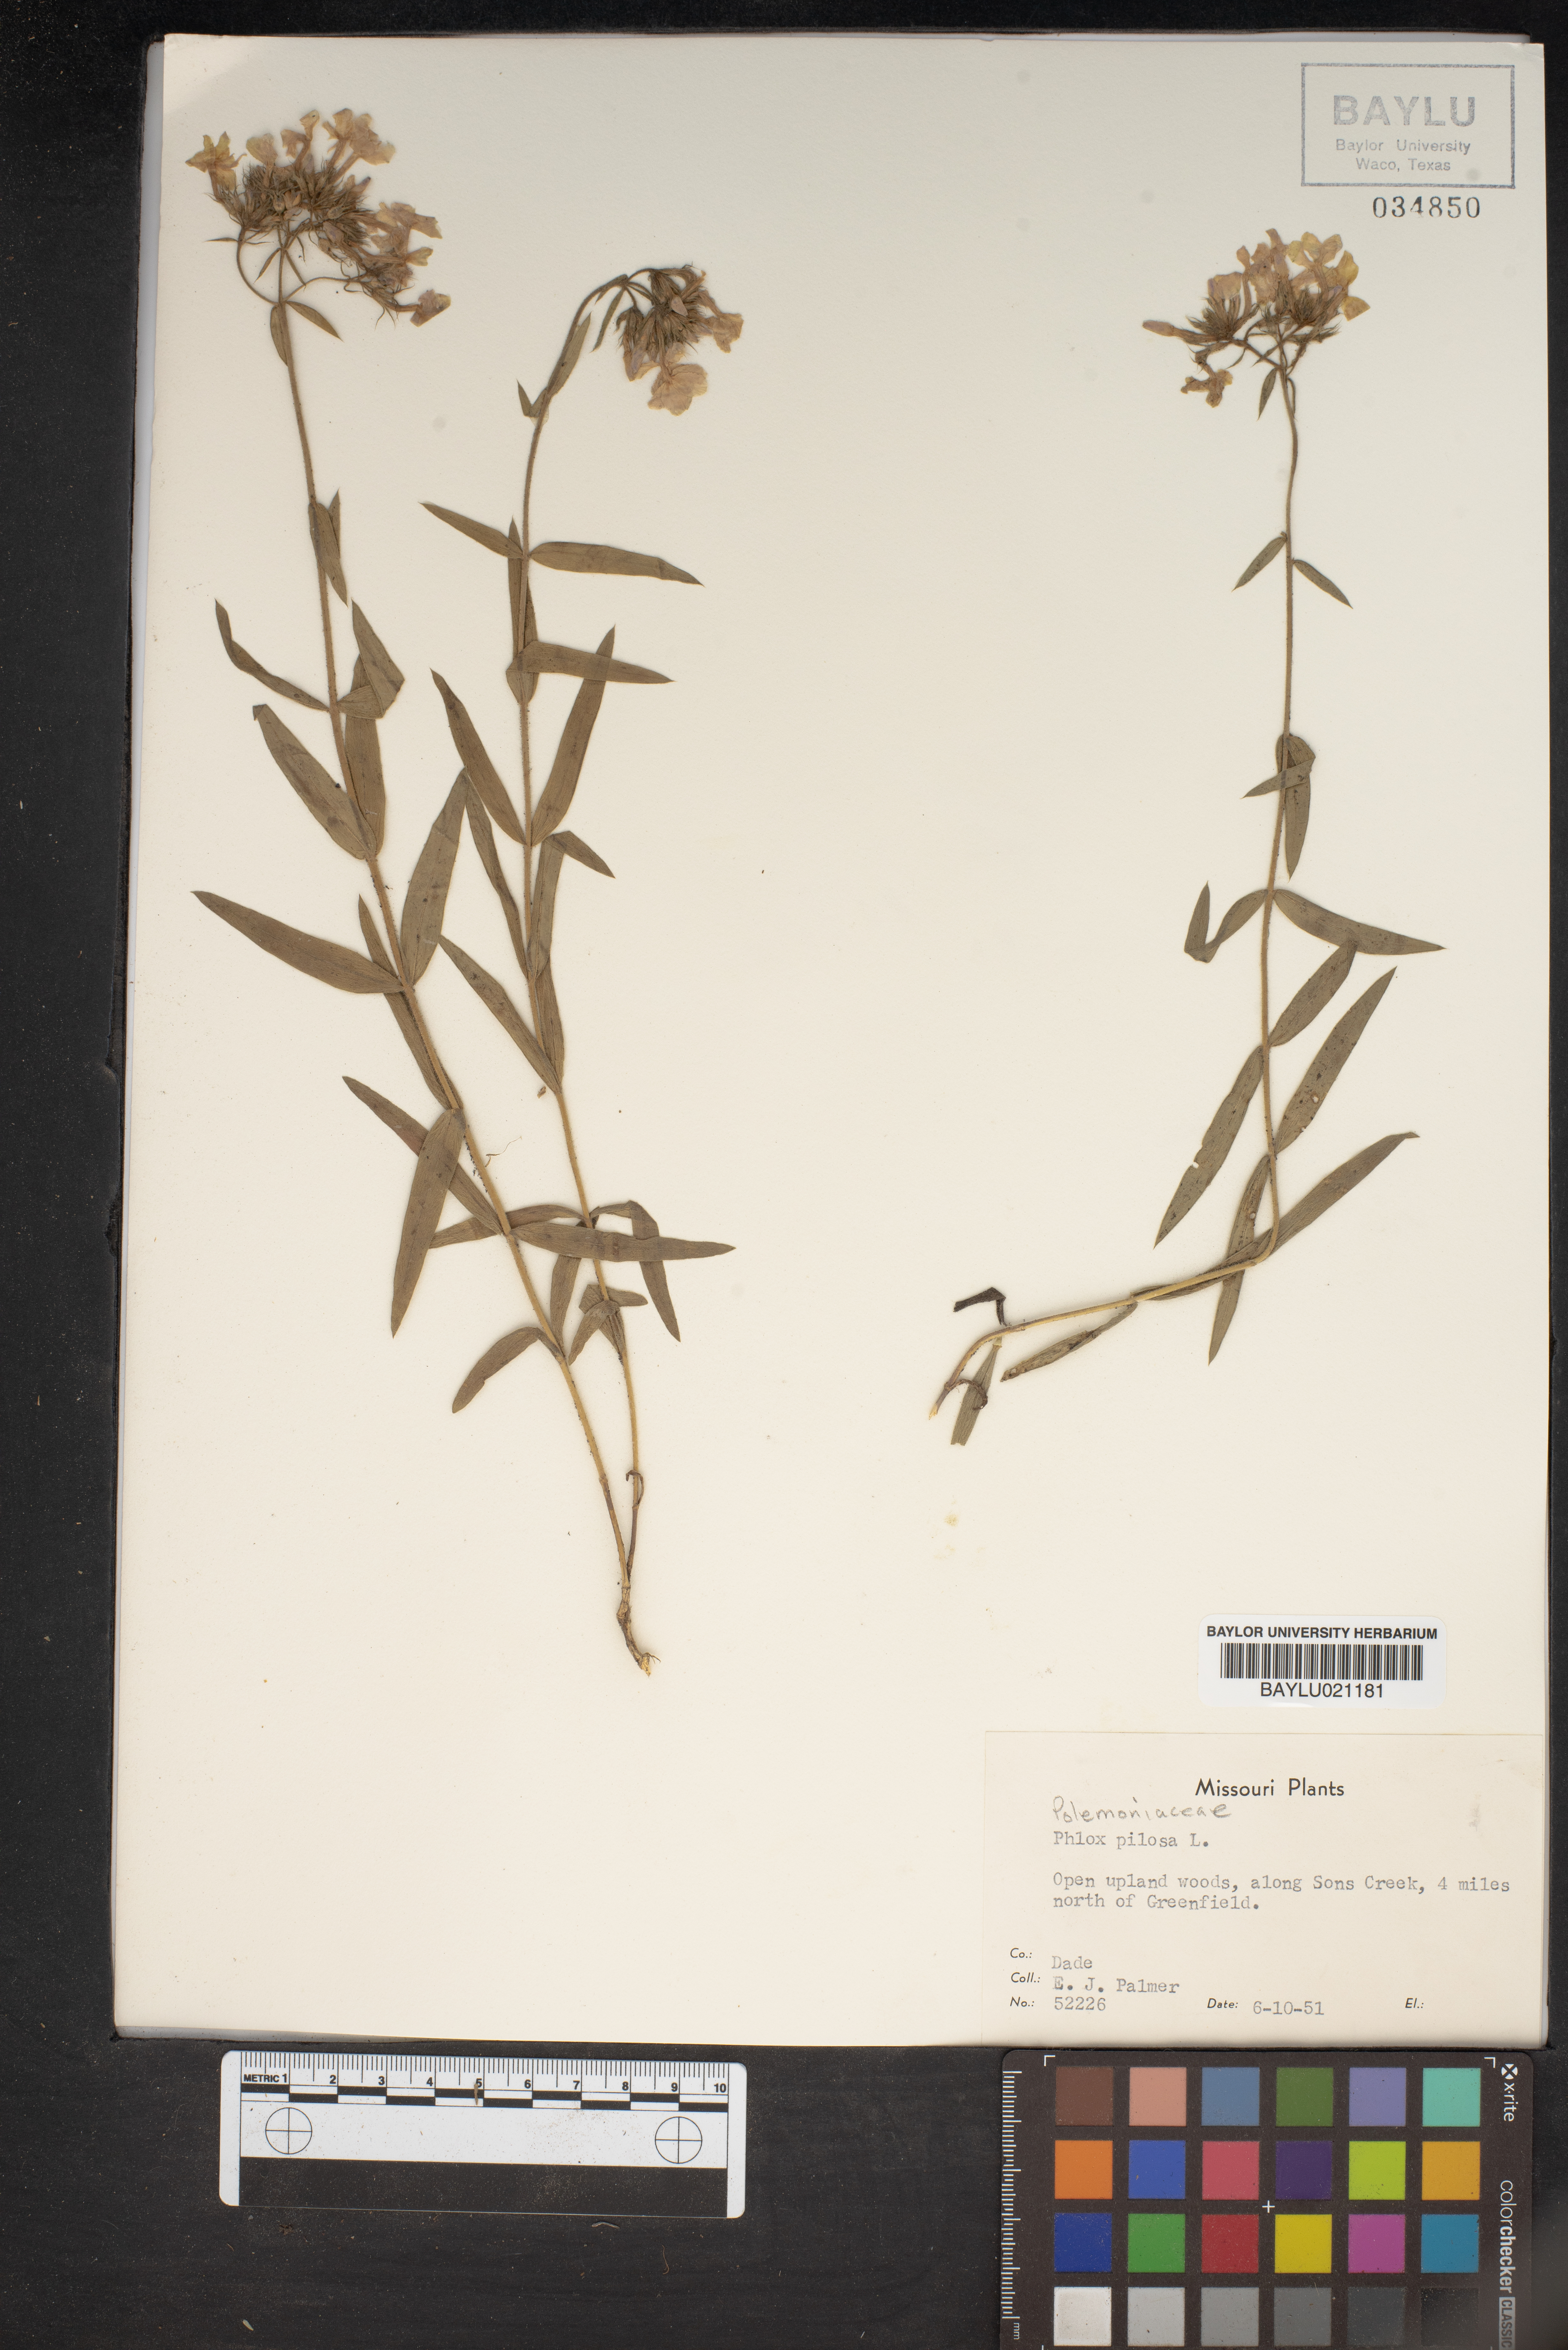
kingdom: Plantae
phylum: Tracheophyta
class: Magnoliopsida
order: Ericales
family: Polemoniaceae
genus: Phlox
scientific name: Phlox pilosa
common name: Prairie phlox
